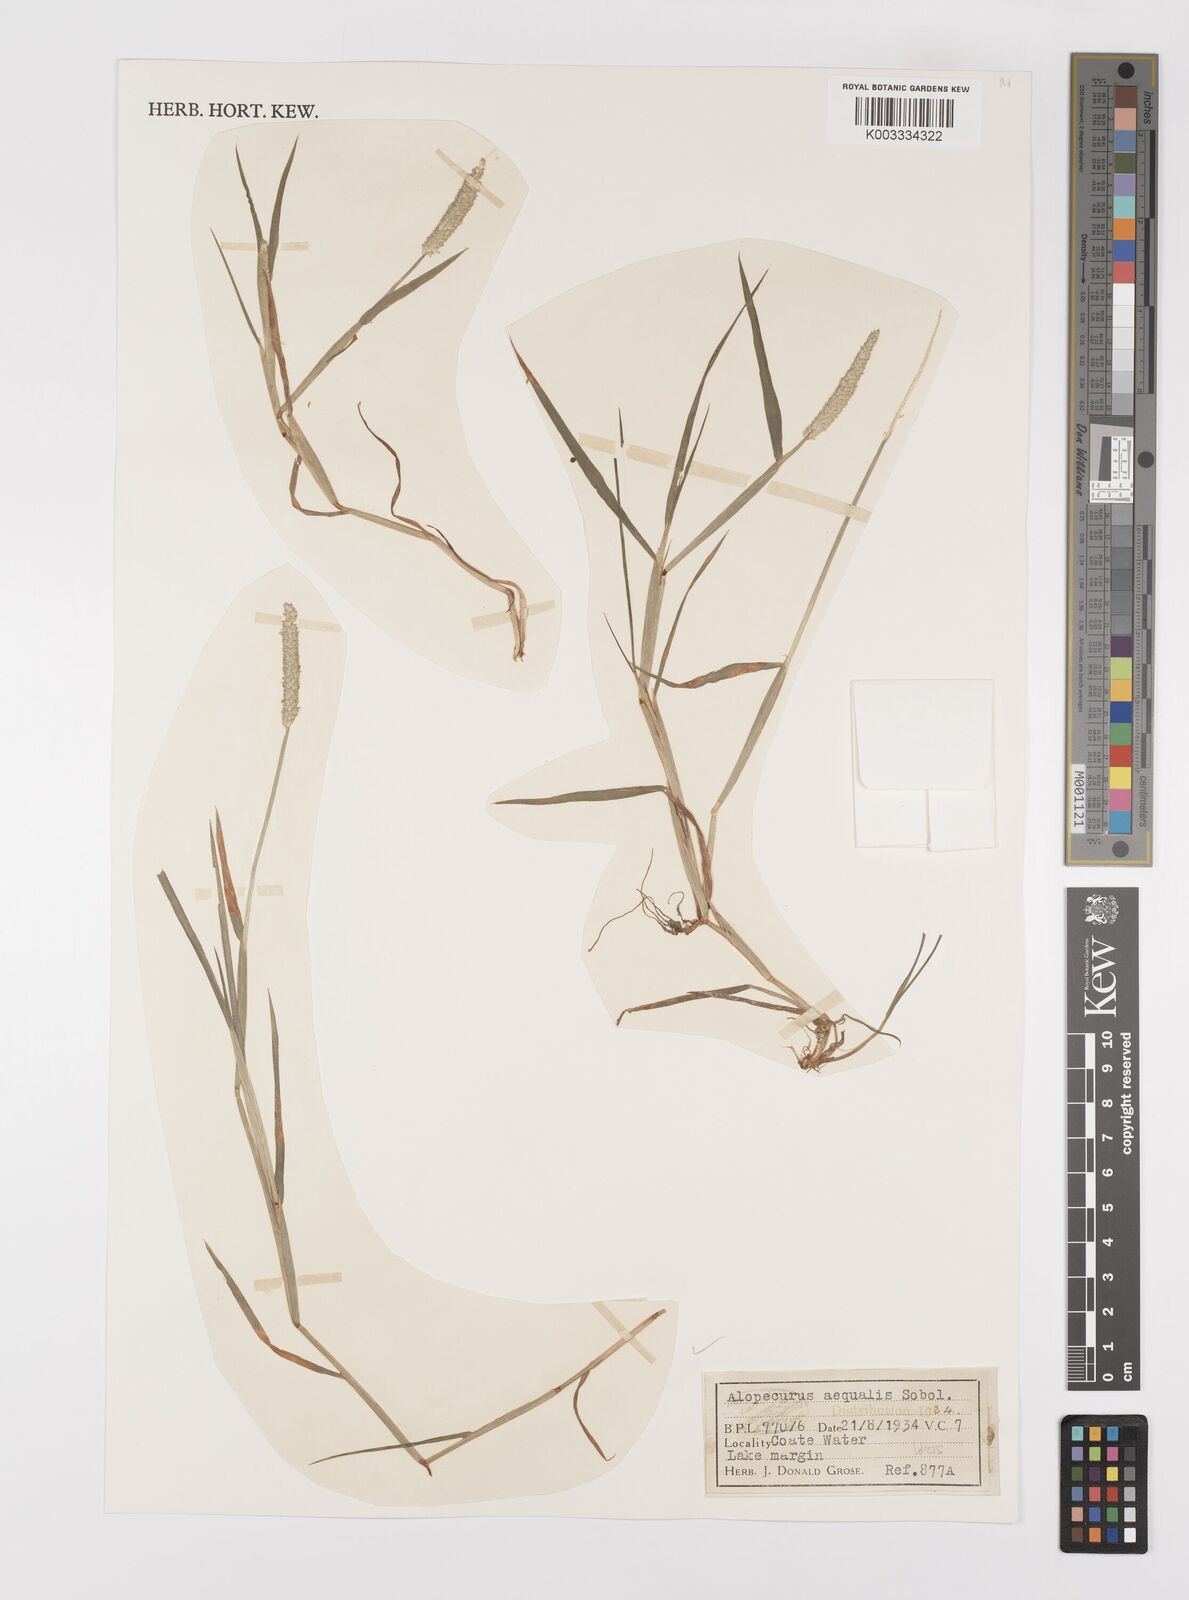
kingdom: Plantae
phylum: Tracheophyta
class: Liliopsida
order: Poales
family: Poaceae
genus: Alopecurus
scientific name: Alopecurus aequalis
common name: Orange foxtail
